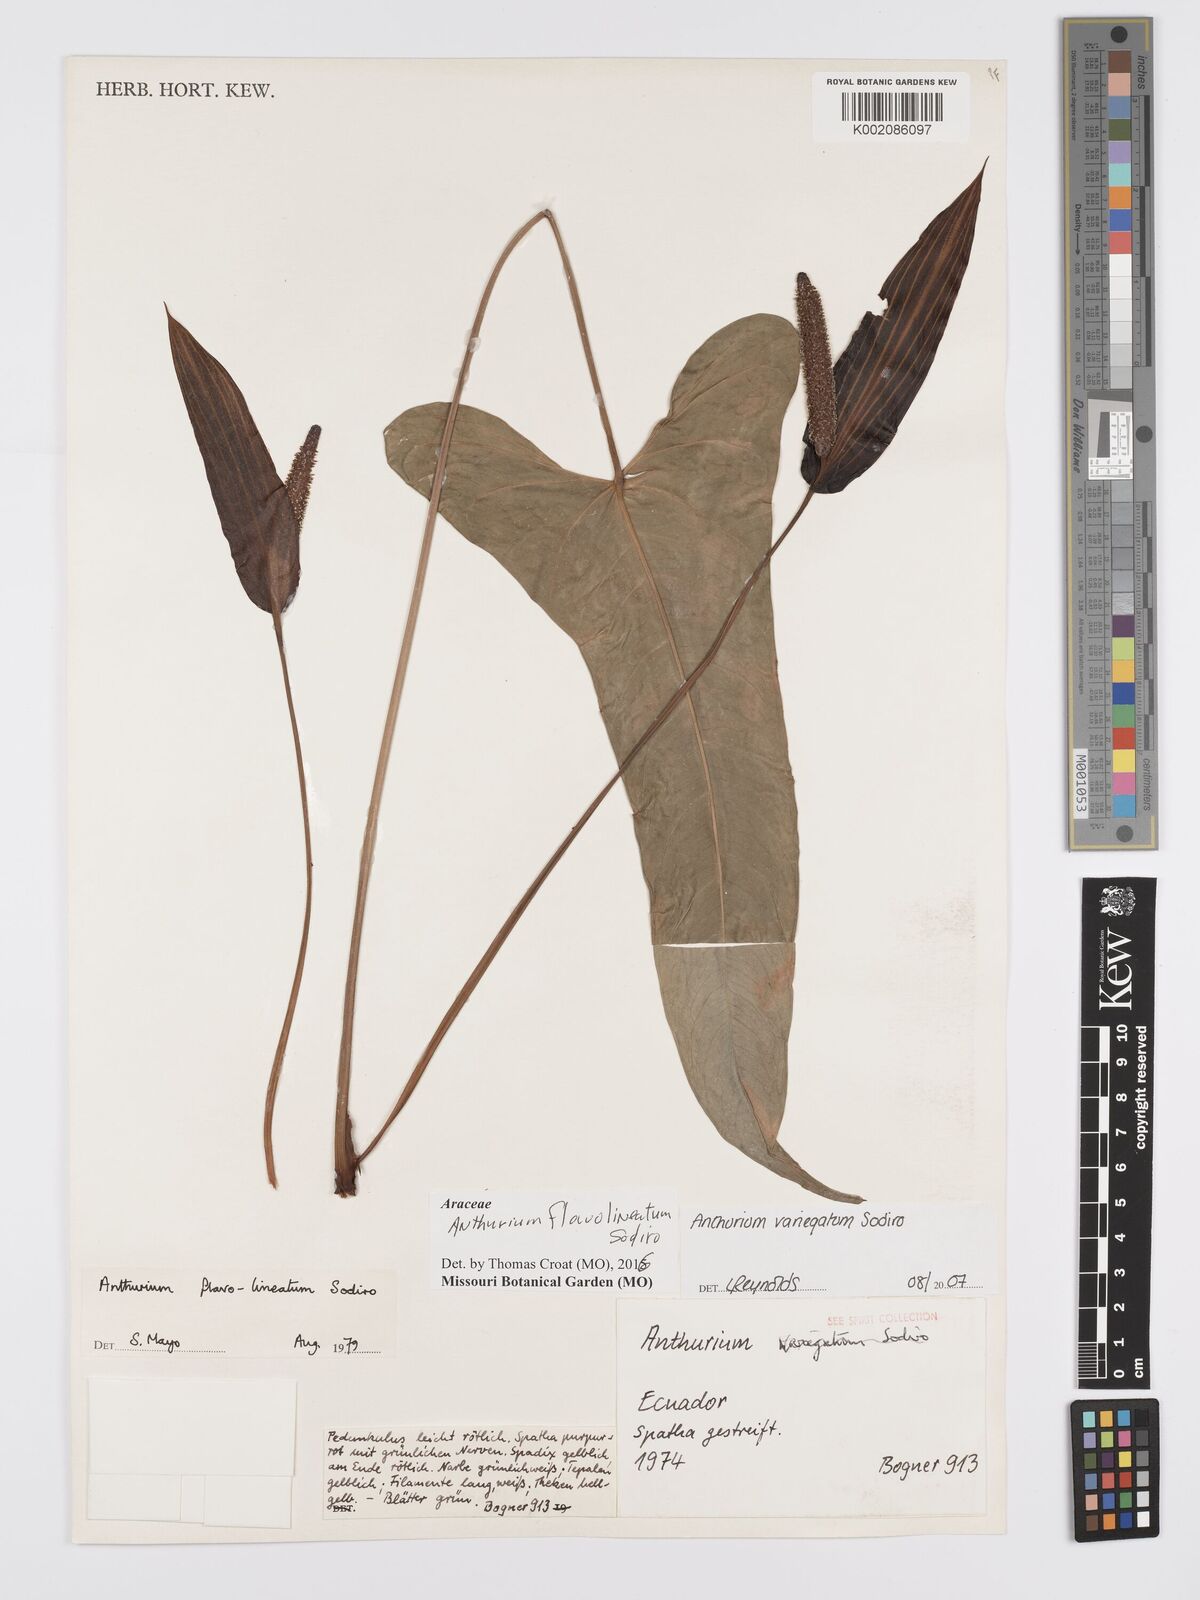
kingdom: Plantae
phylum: Tracheophyta
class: Liliopsida
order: Alismatales
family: Araceae
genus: Anthurium
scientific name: Anthurium flavolineatum
